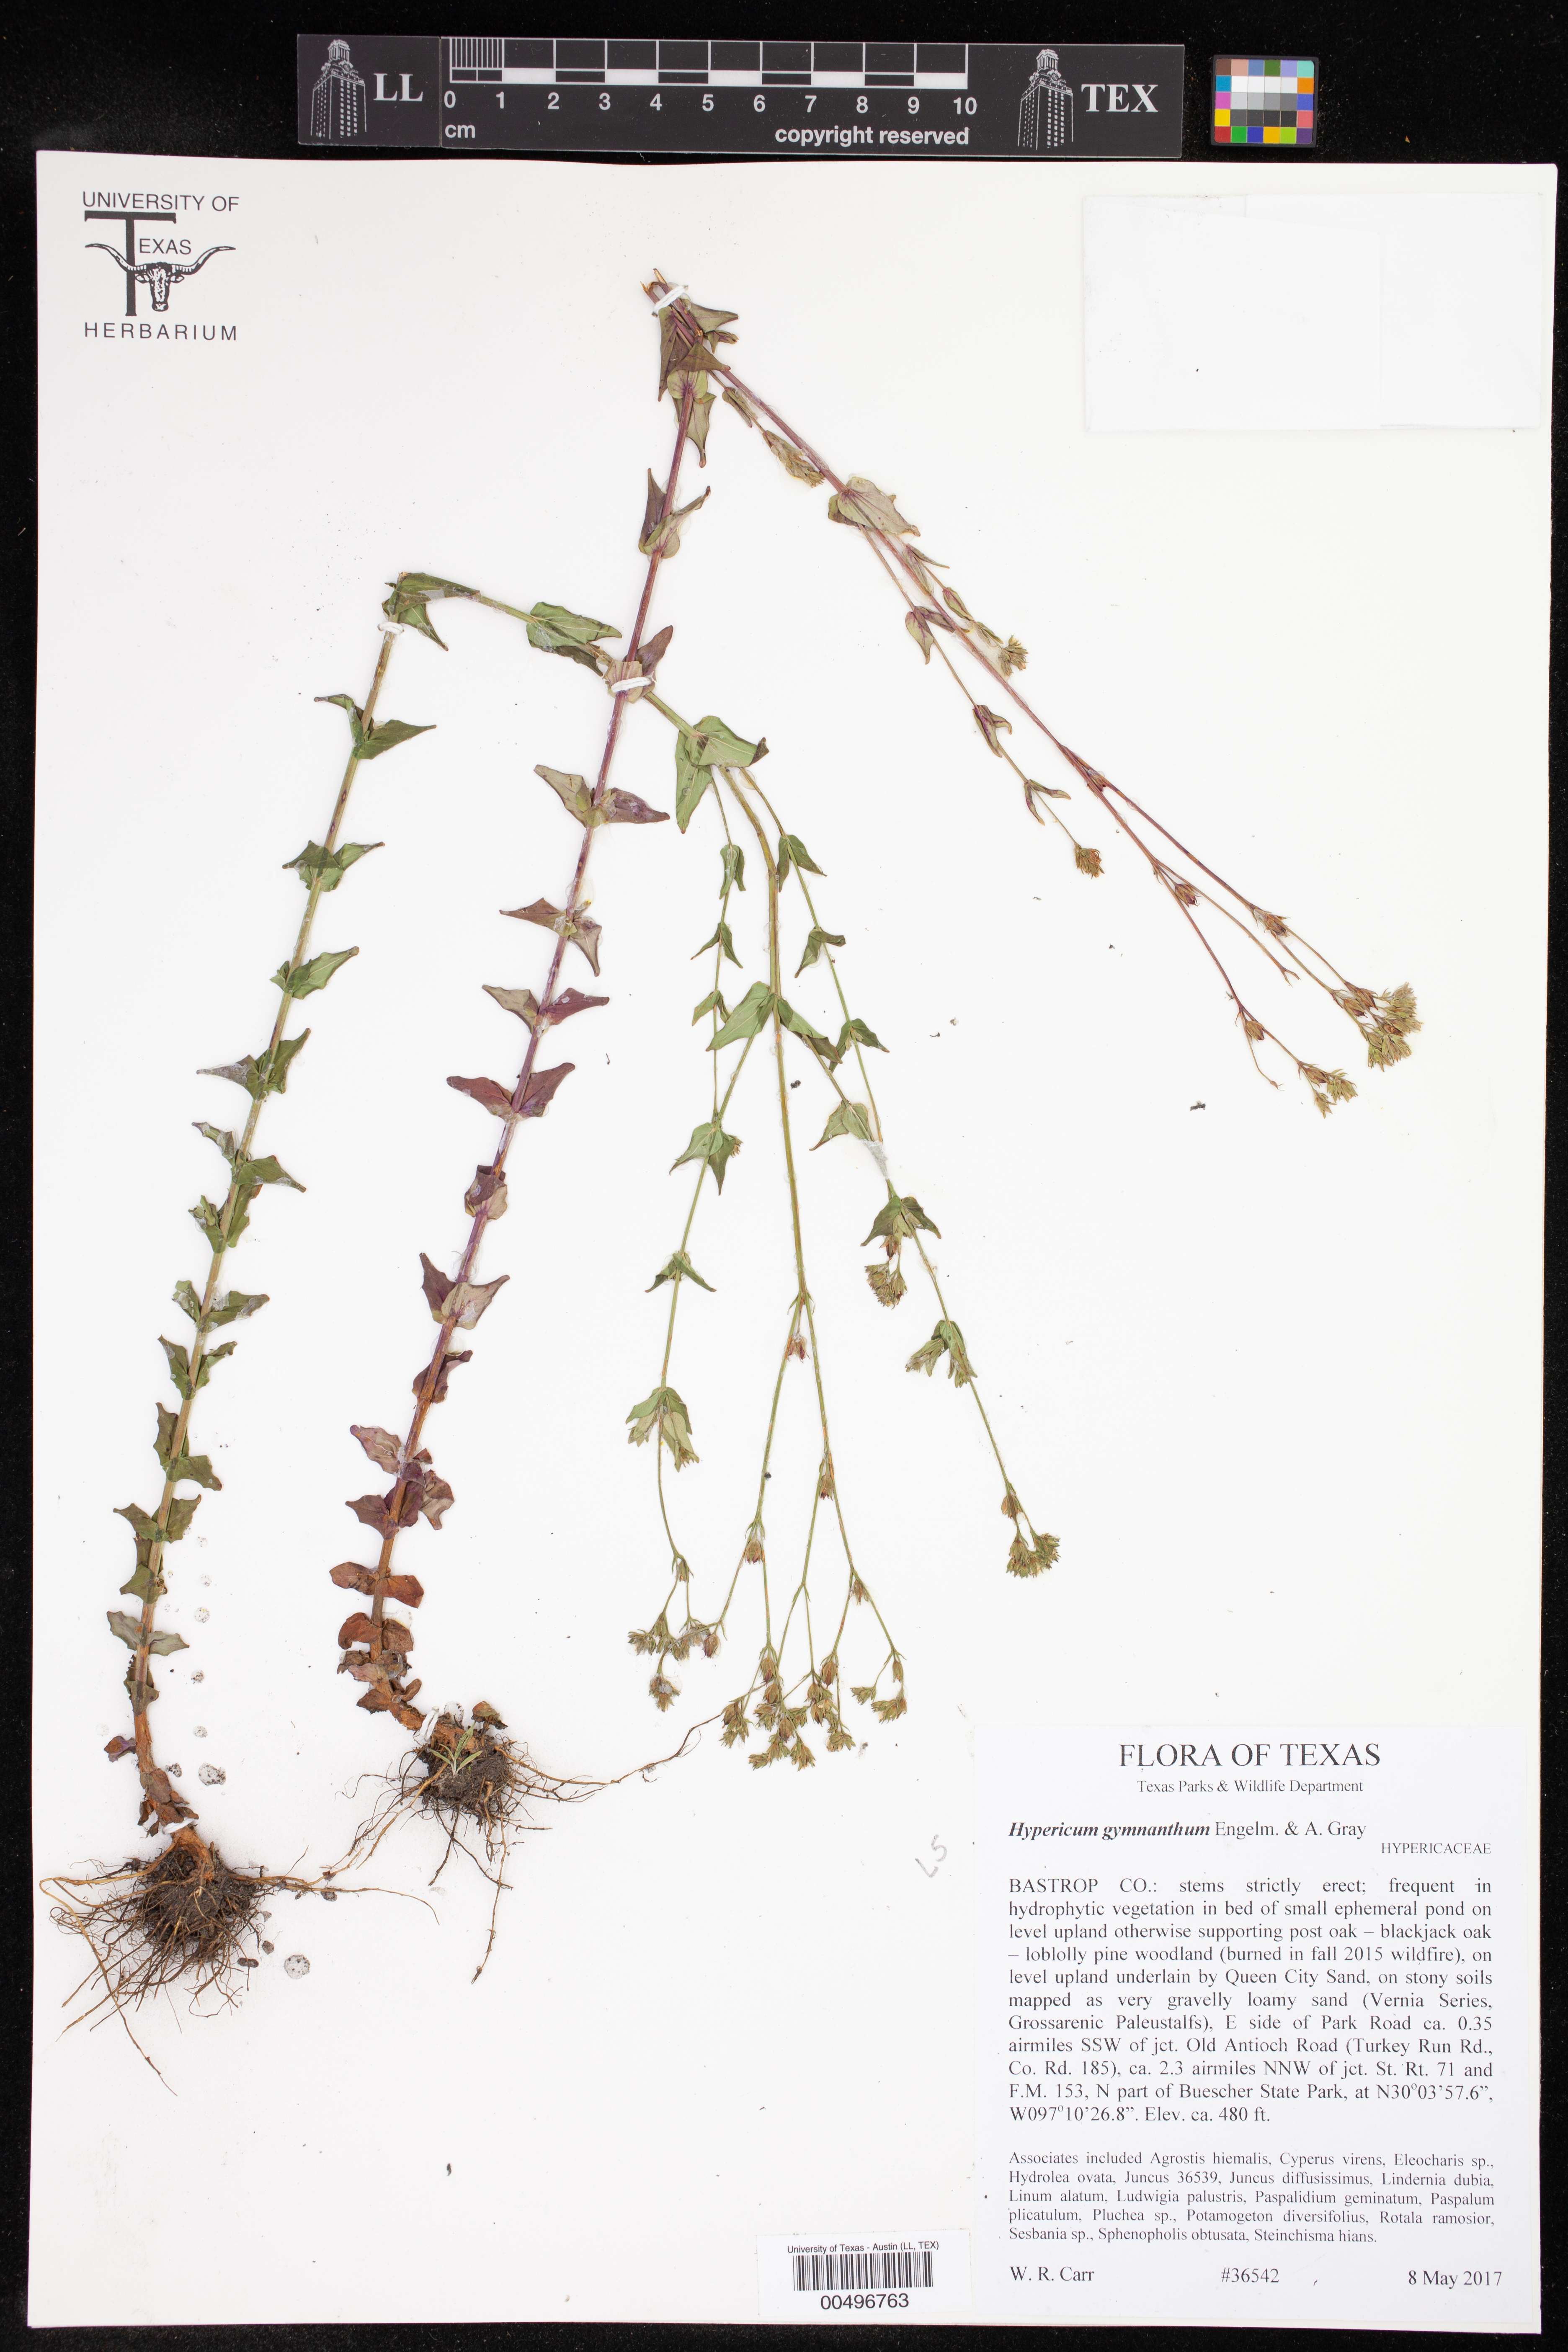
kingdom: Plantae
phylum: Tracheophyta
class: Magnoliopsida
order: Malpighiales
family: Hypericaceae
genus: Hypericum
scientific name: Hypericum gymnanthum
